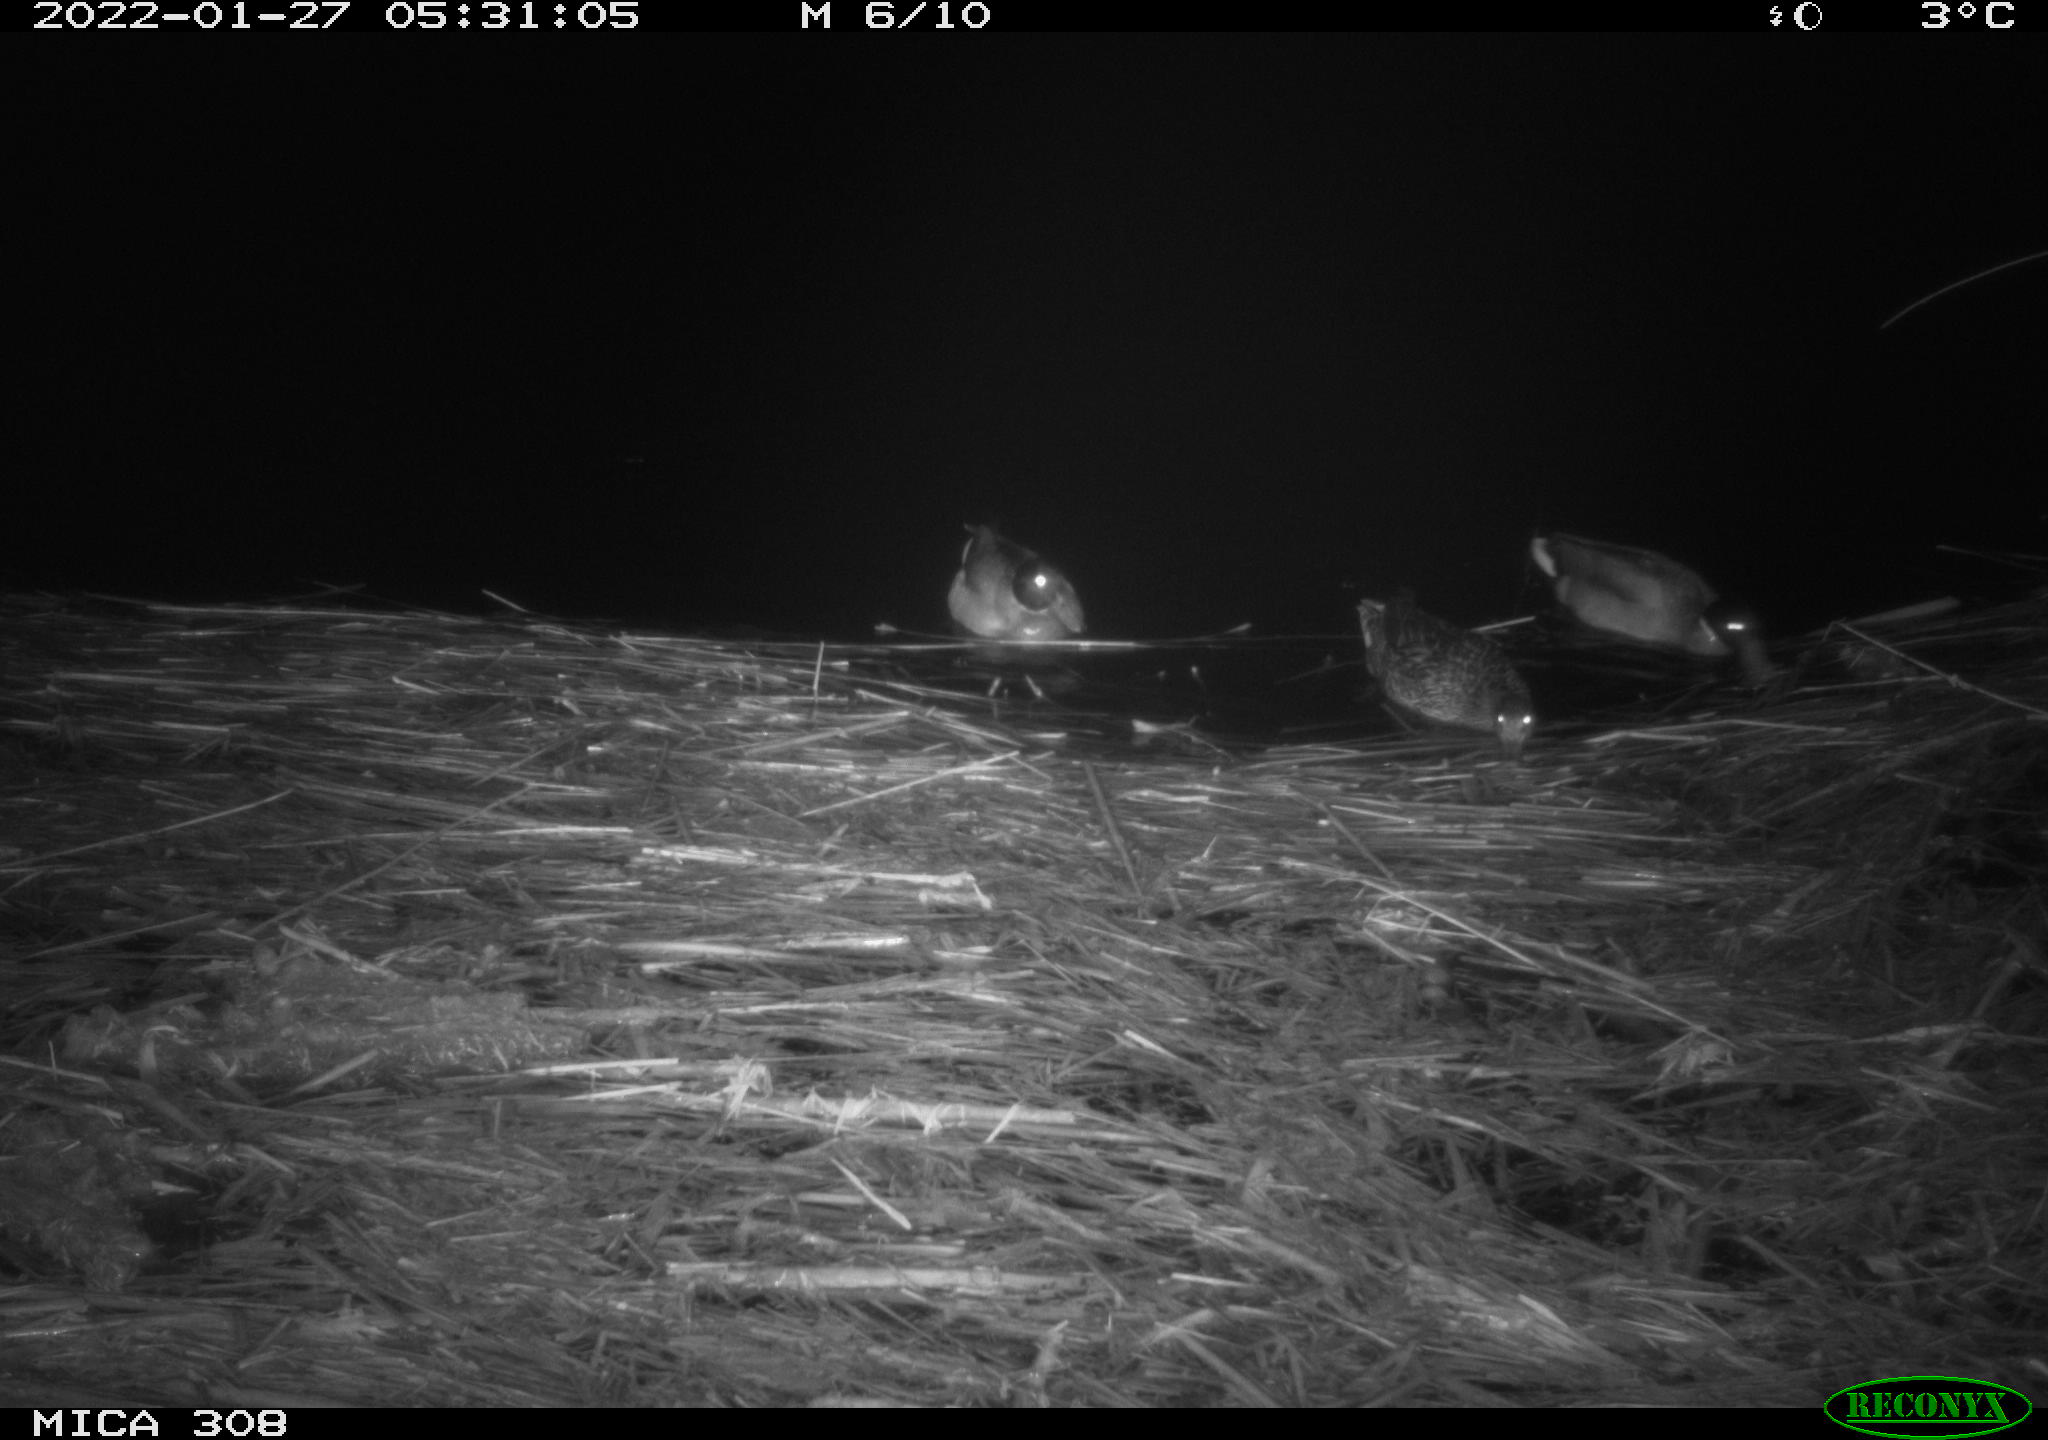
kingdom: Animalia
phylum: Chordata
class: Aves
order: Anseriformes
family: Anatidae
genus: Anas
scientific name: Anas
